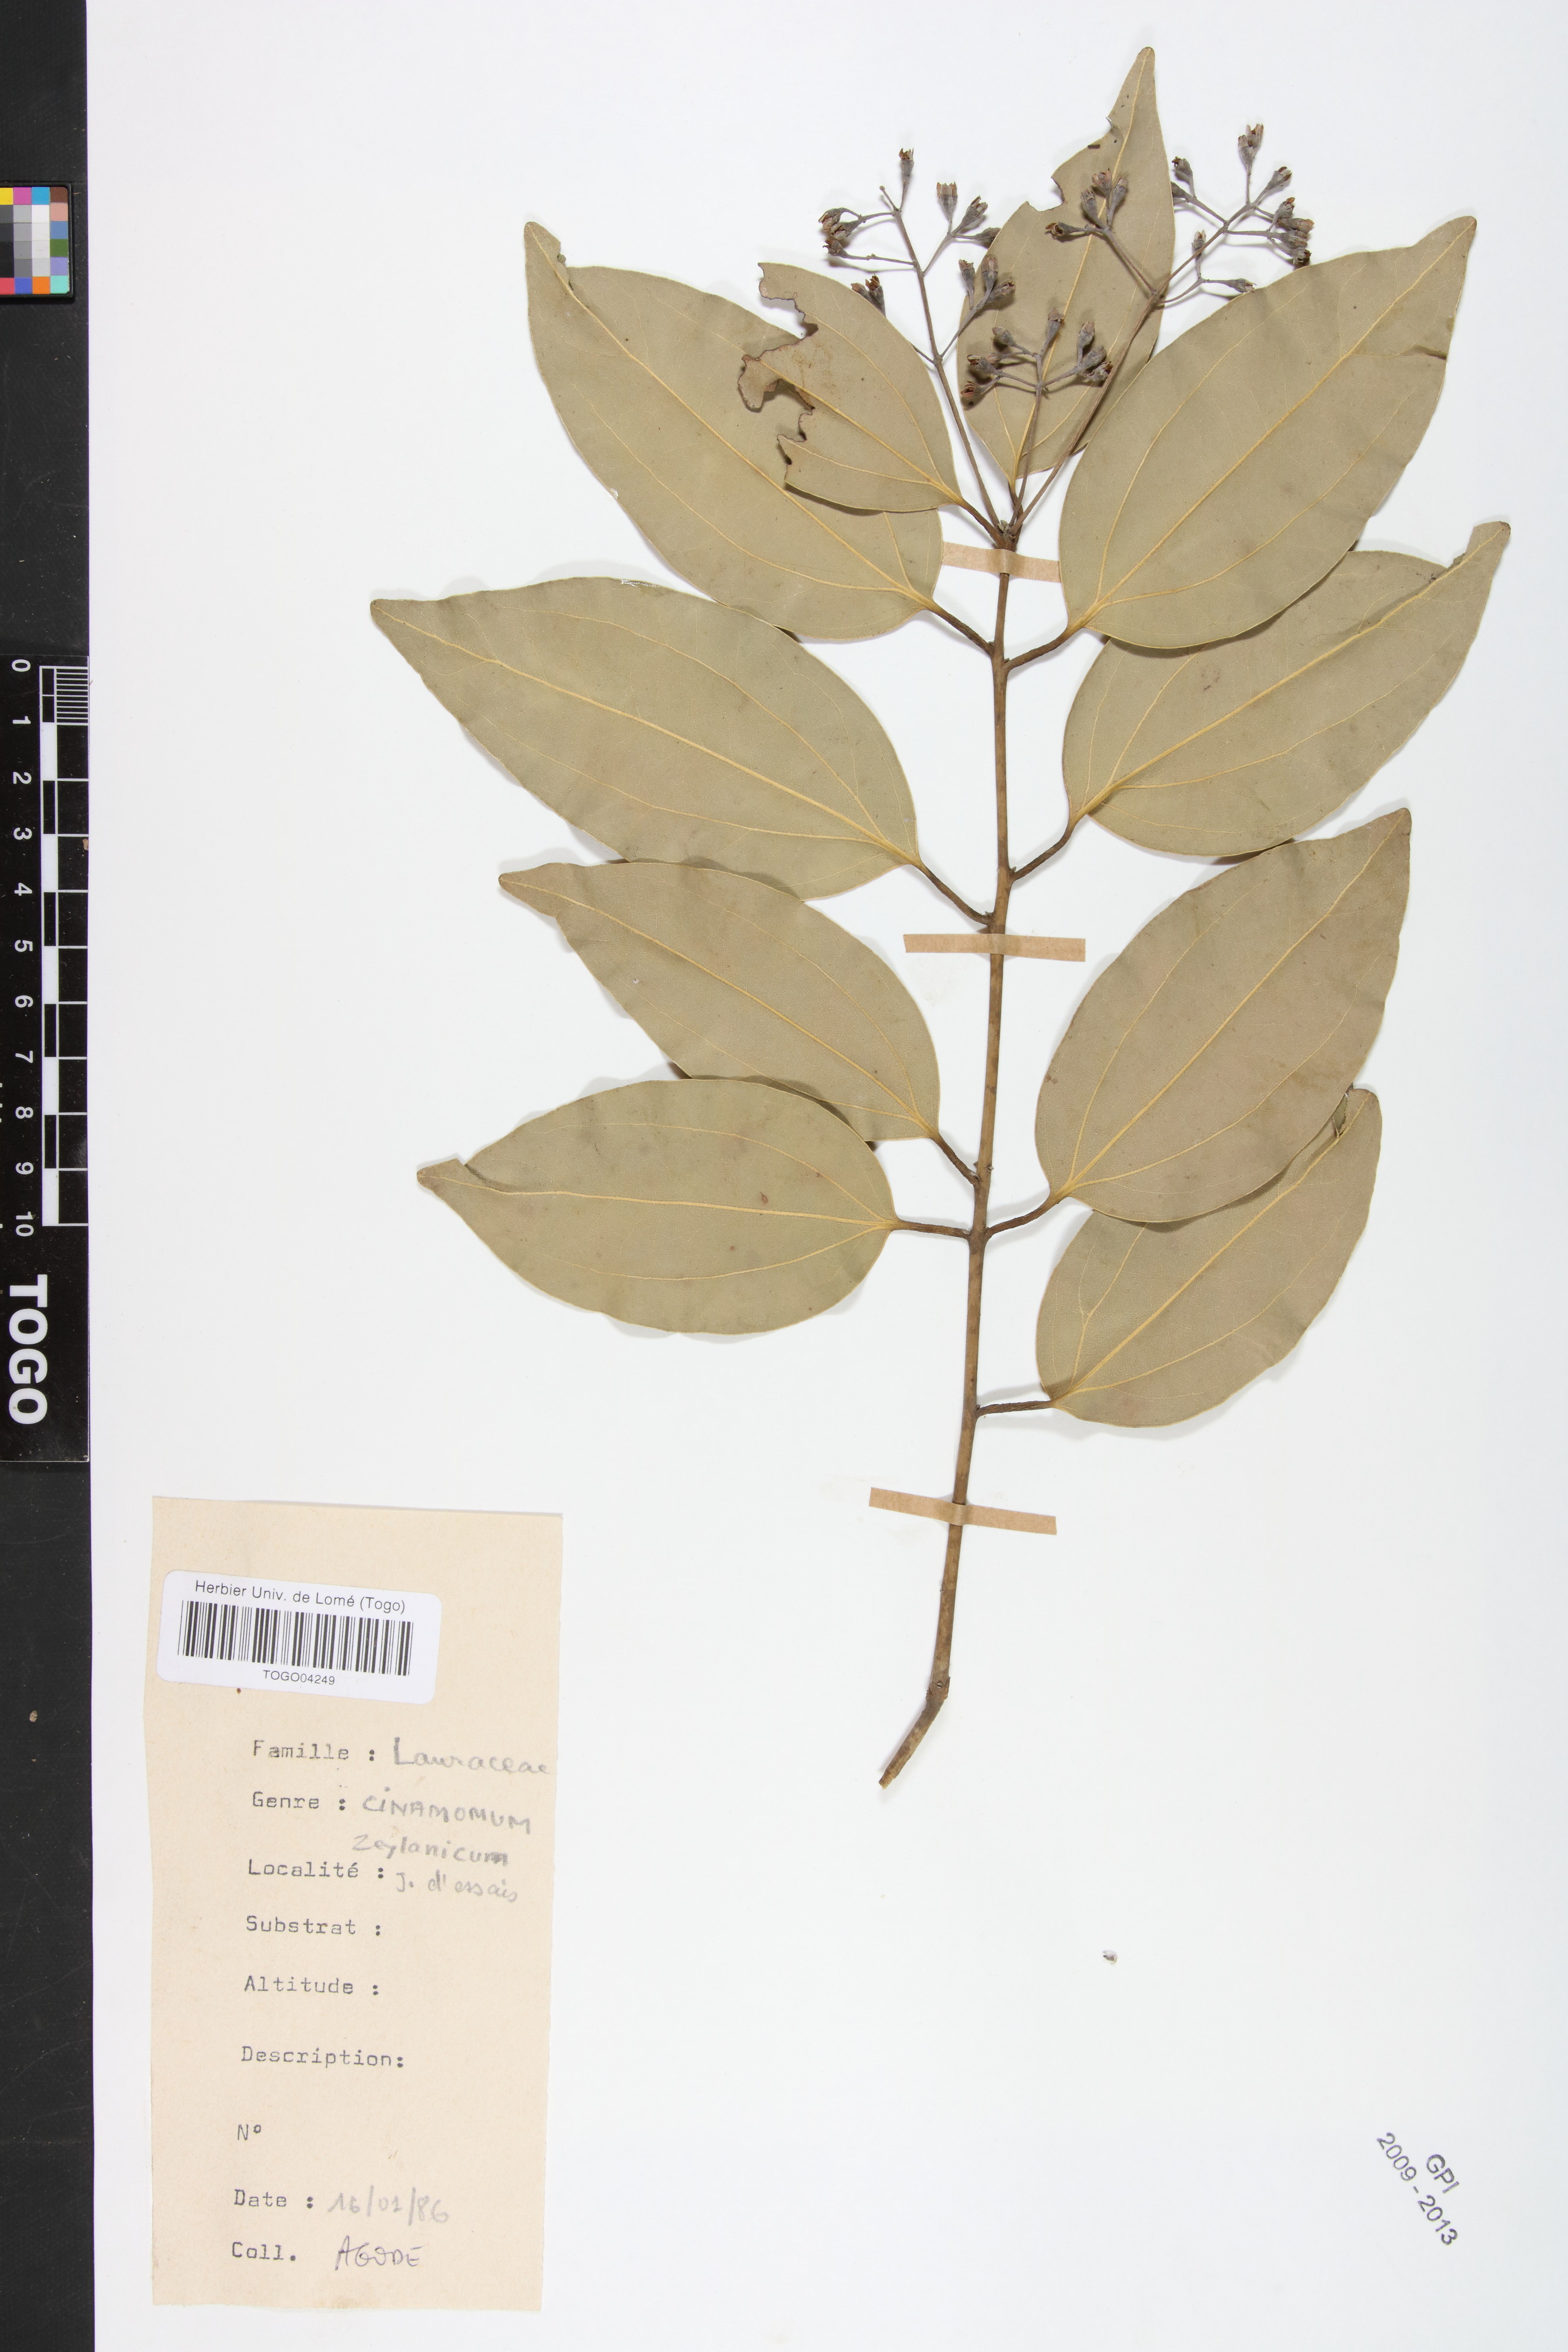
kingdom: Plantae
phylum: Tracheophyta
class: Magnoliopsida
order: Laurales
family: Lauraceae
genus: Cinnamomum
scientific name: Cinnamomum verum
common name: Cinnamon
